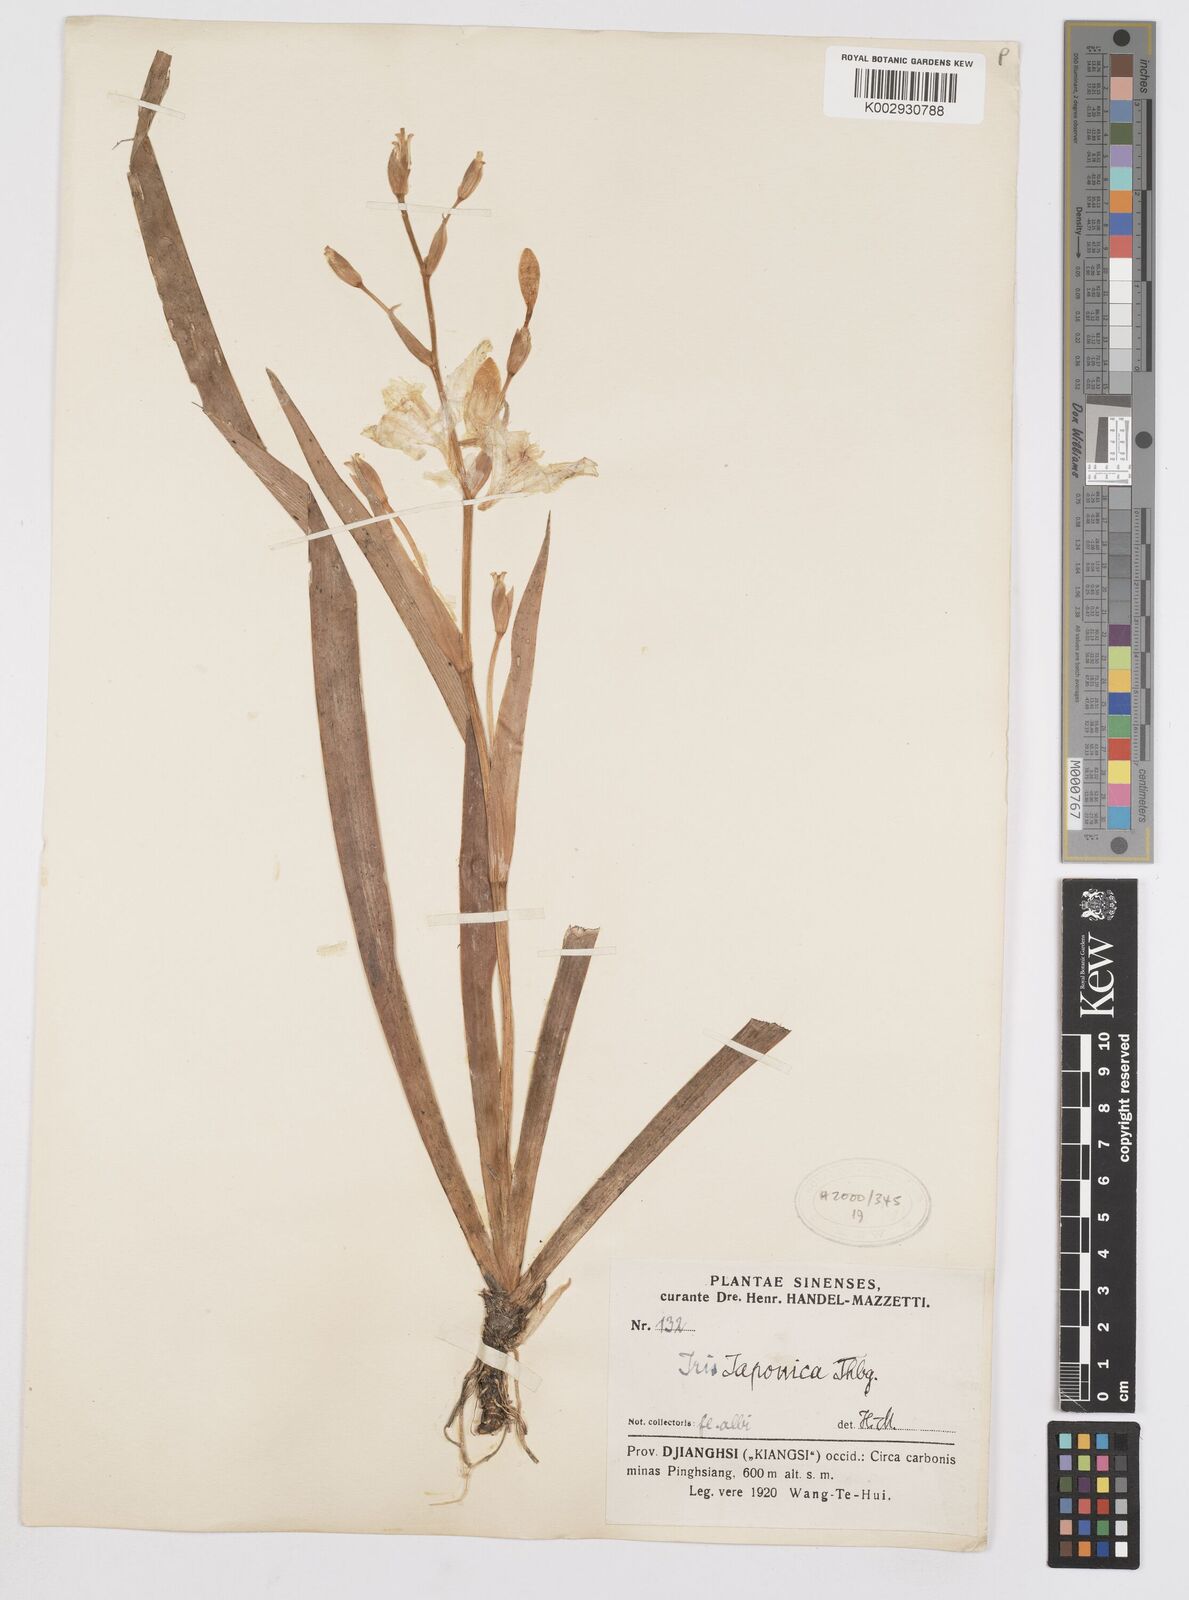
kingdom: Plantae
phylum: Tracheophyta
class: Liliopsida
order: Asparagales
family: Iridaceae
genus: Iris
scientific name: Iris japonica
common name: Butterfly-flower
